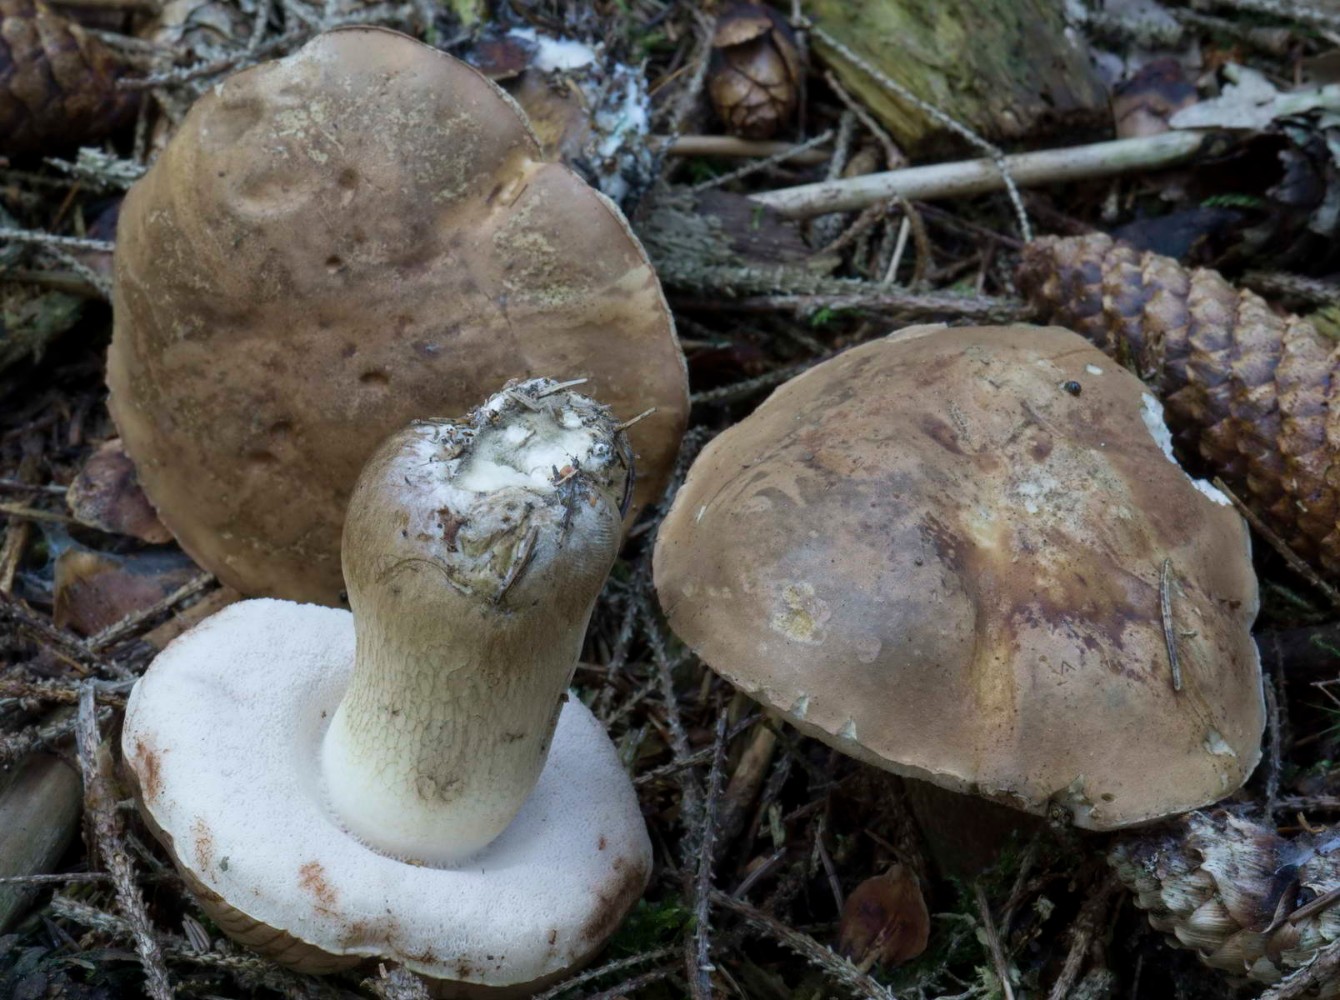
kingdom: Fungi
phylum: Basidiomycota
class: Agaricomycetes
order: Boletales
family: Boletaceae
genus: Tylopilus
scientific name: Tylopilus felleus
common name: galderørhat
